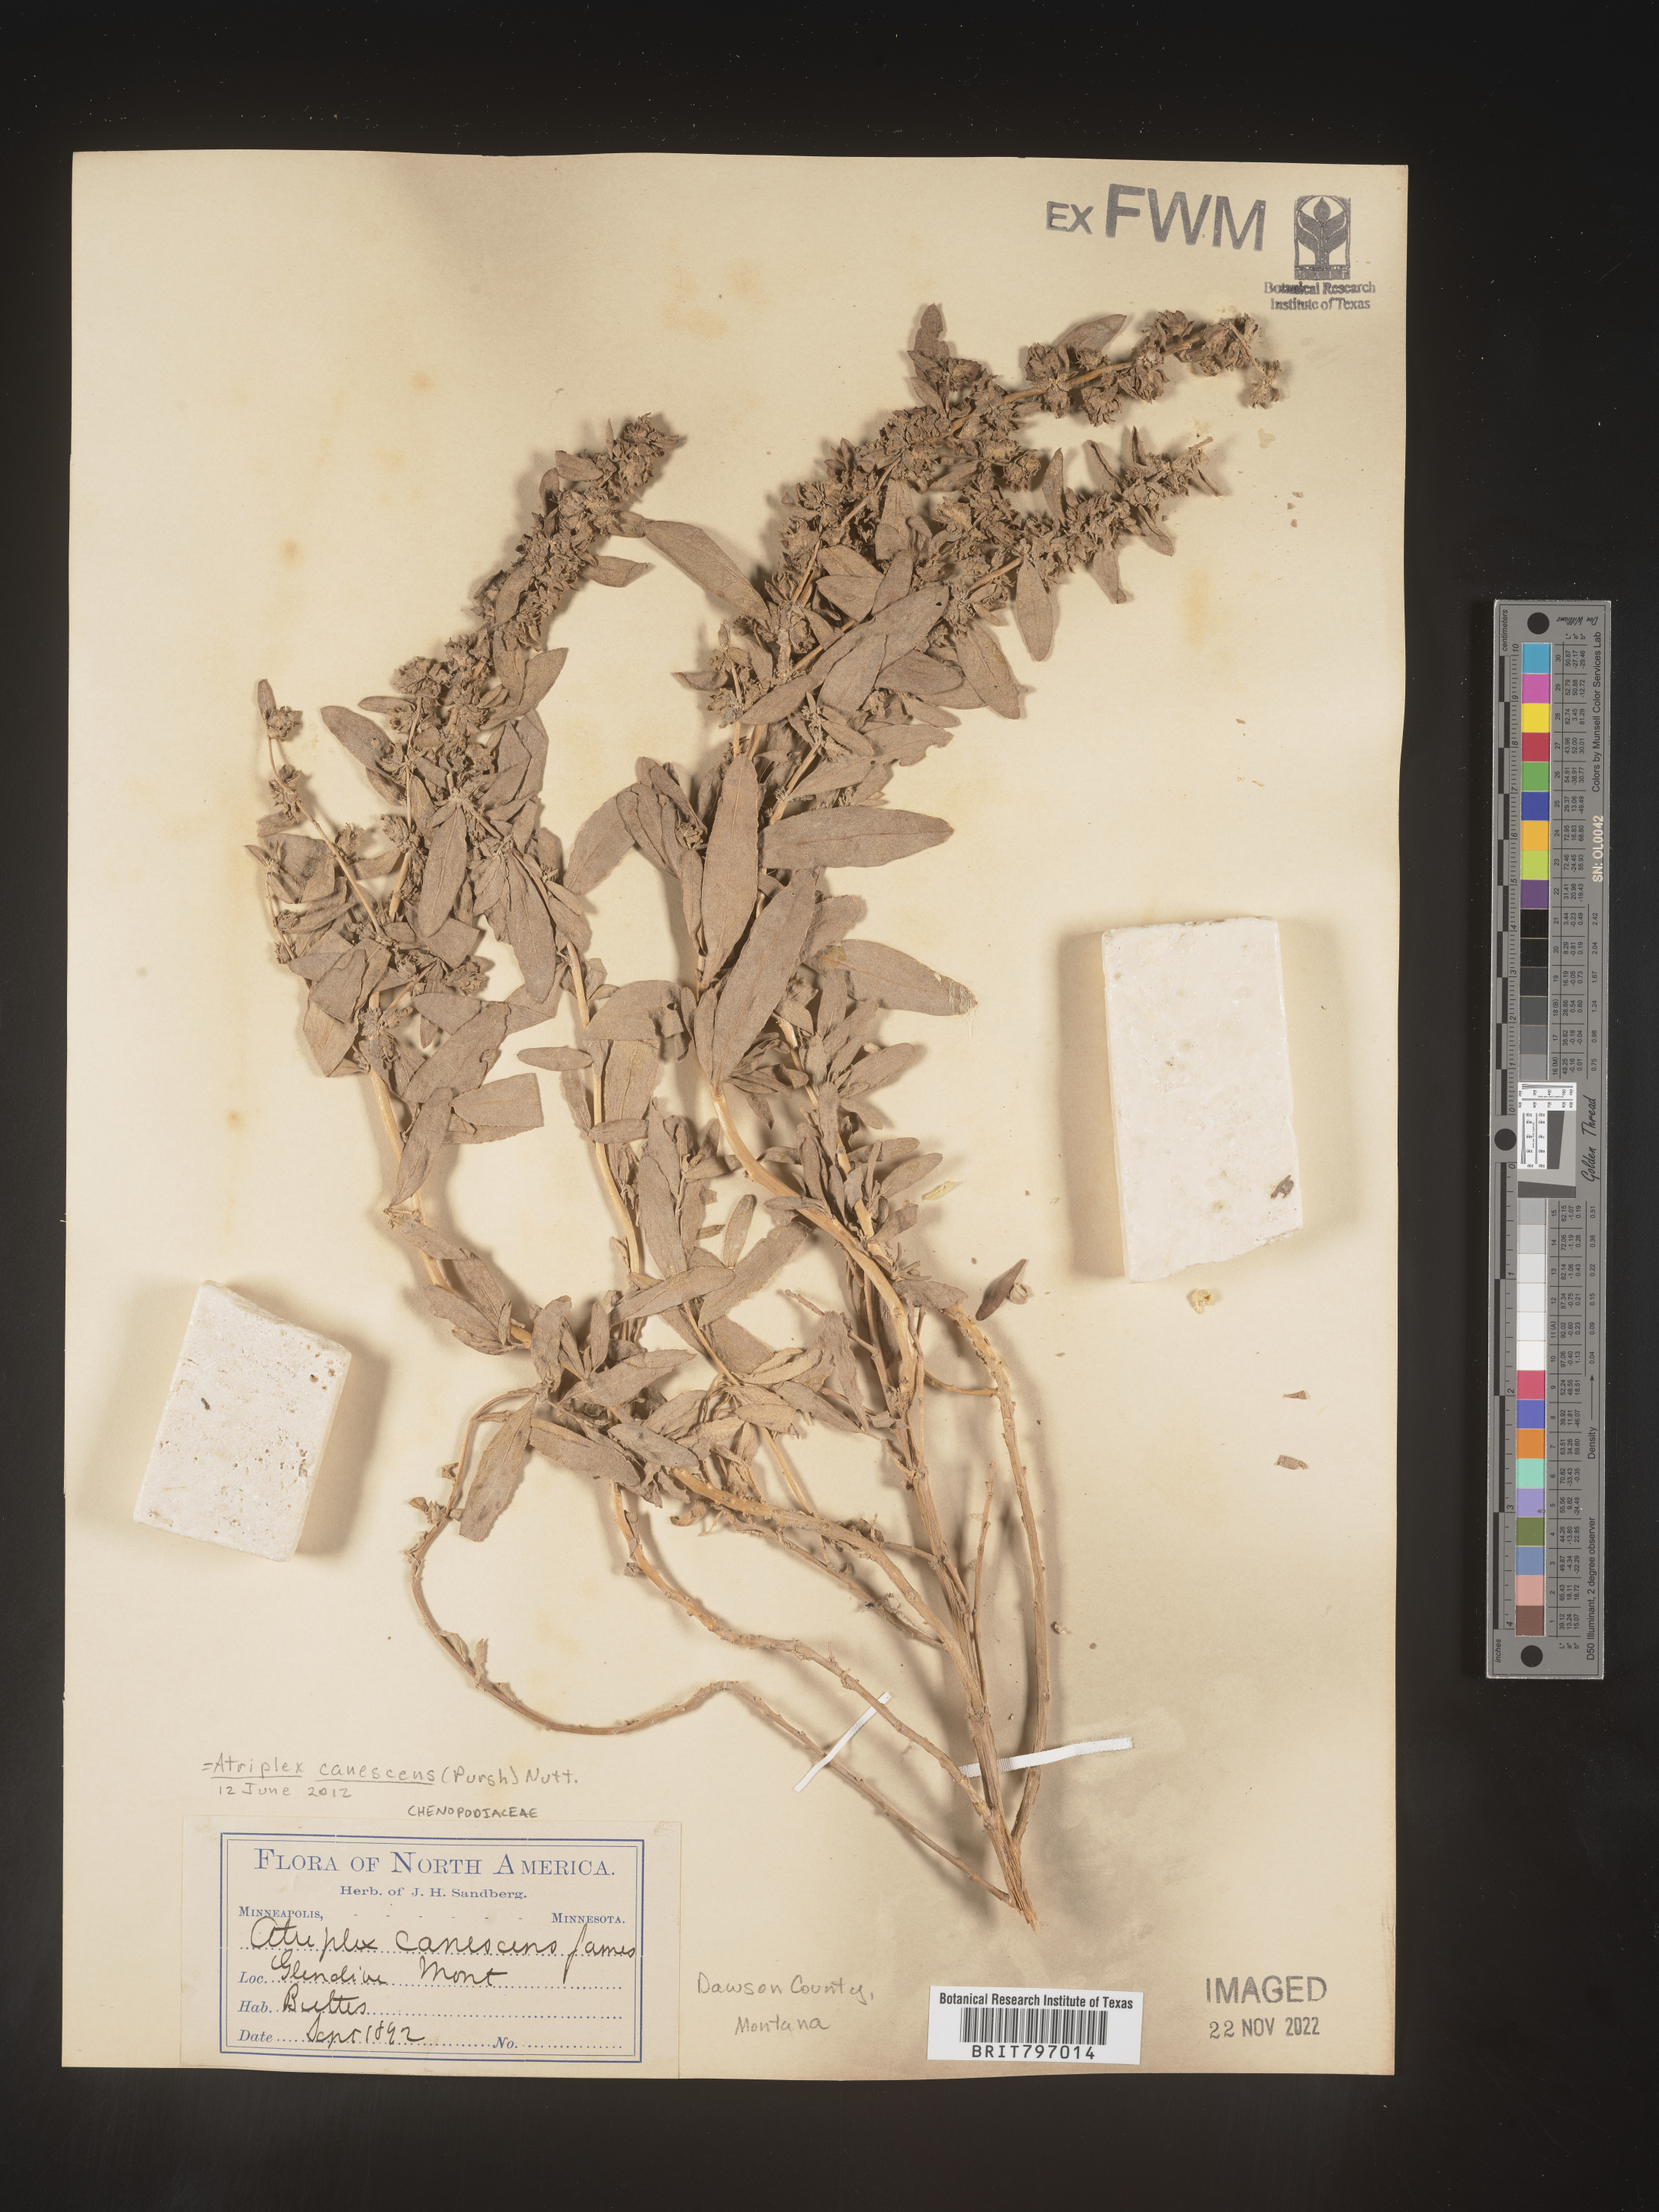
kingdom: Plantae
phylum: Tracheophyta
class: Magnoliopsida
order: Caryophyllales
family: Amaranthaceae
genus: Atriplex
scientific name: Atriplex canescens
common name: Four-wing saltbush
